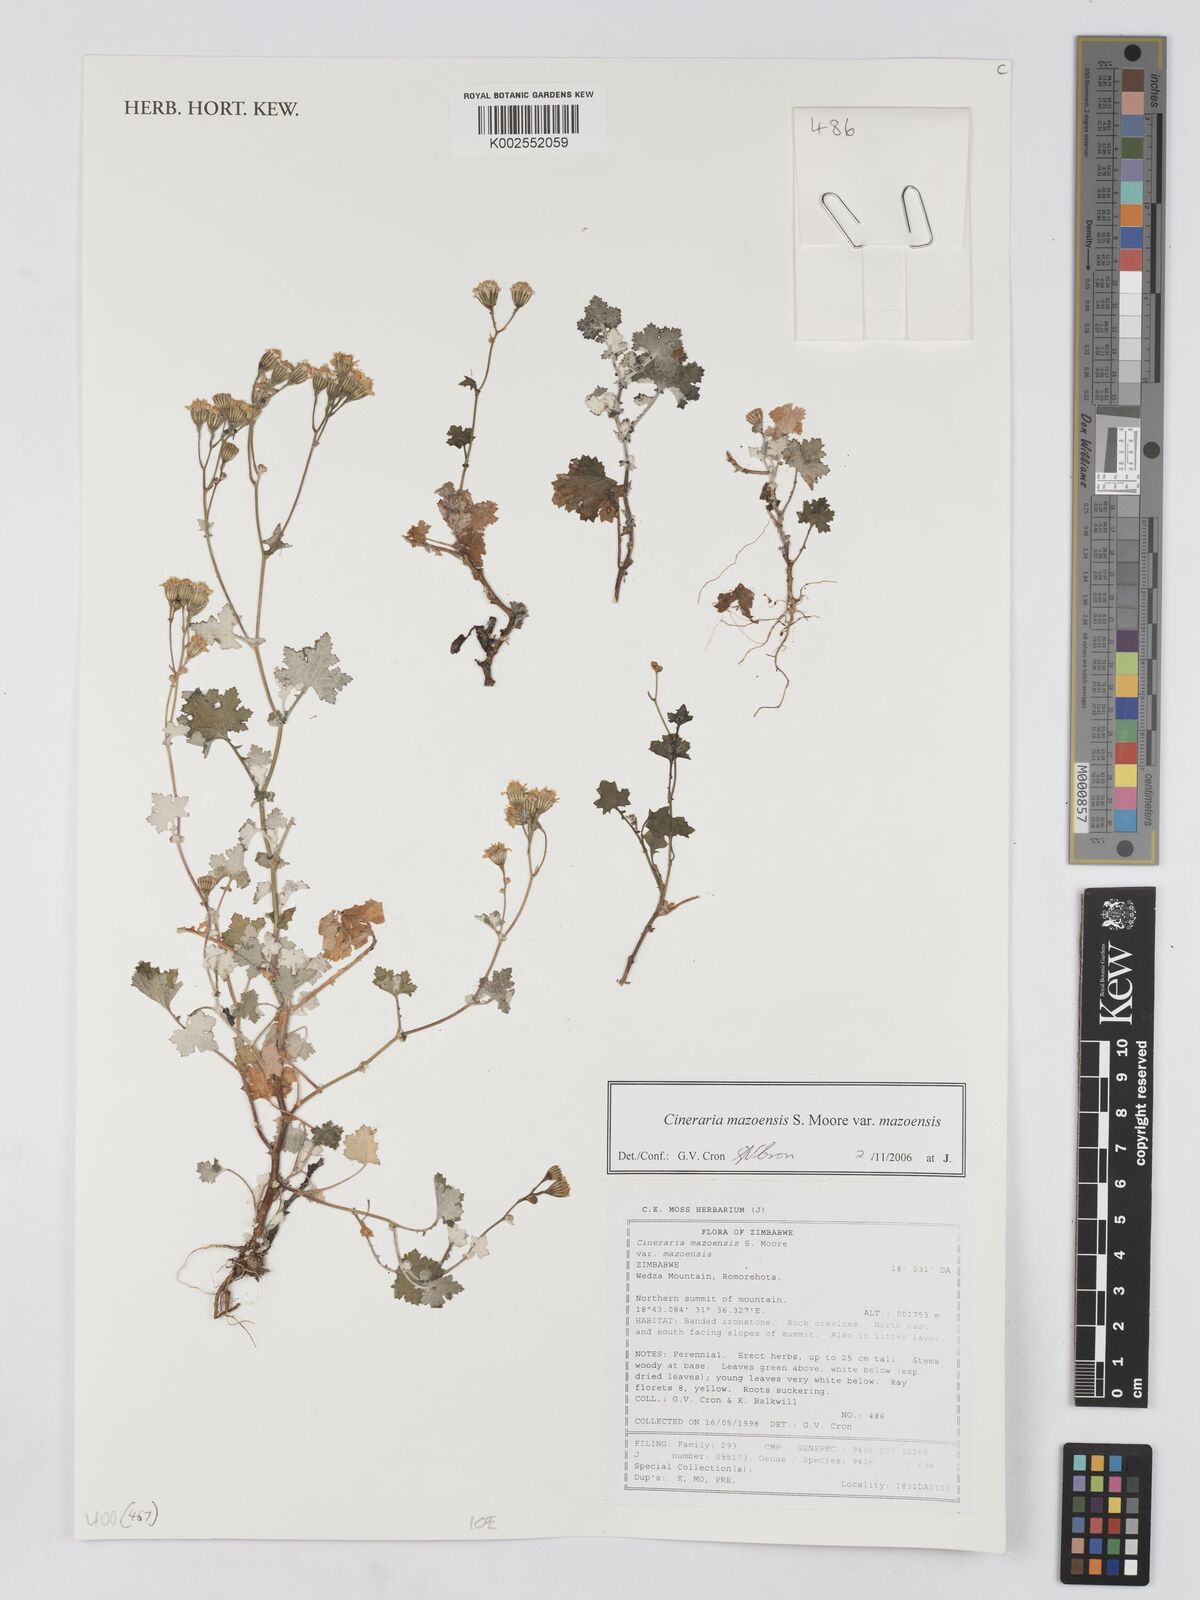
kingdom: Plantae
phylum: Tracheophyta
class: Magnoliopsida
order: Asterales
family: Asteraceae
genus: Cineraria
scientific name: Cineraria mazoensis
